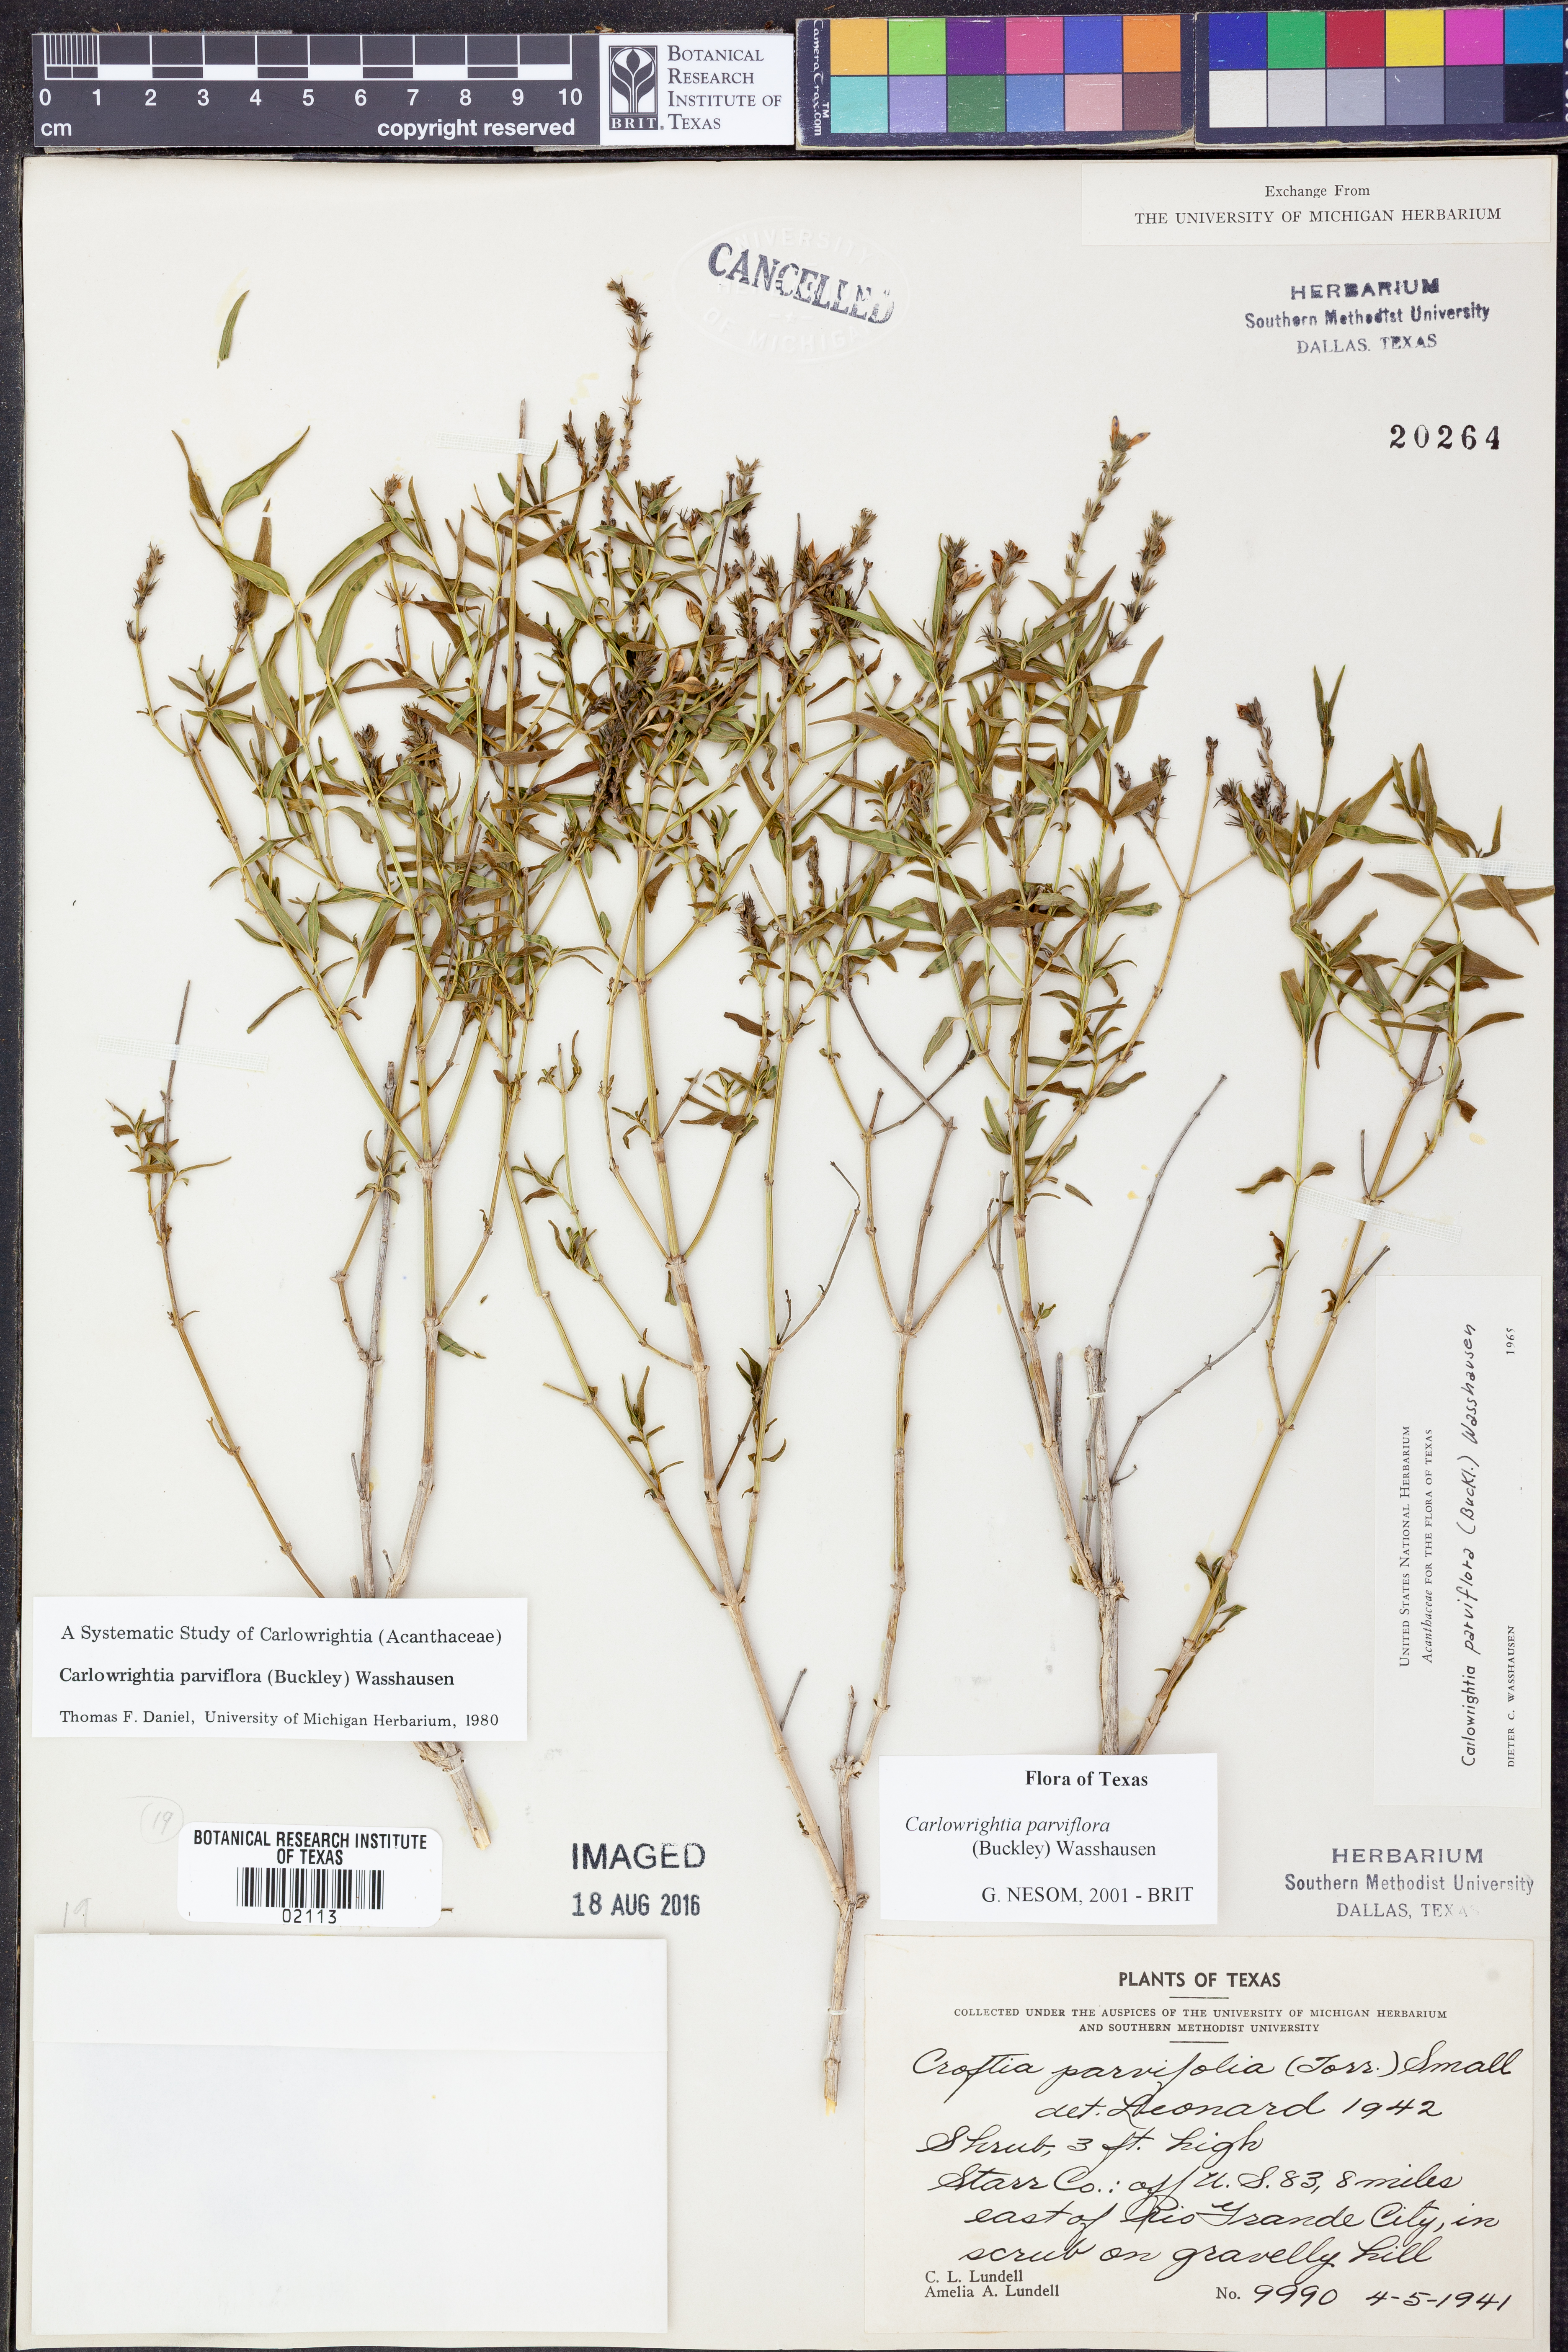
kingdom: Plantae
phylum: Tracheophyta
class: Magnoliopsida
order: Lamiales
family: Acanthaceae
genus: Carlowrightia
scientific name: Carlowrightia parviflora
